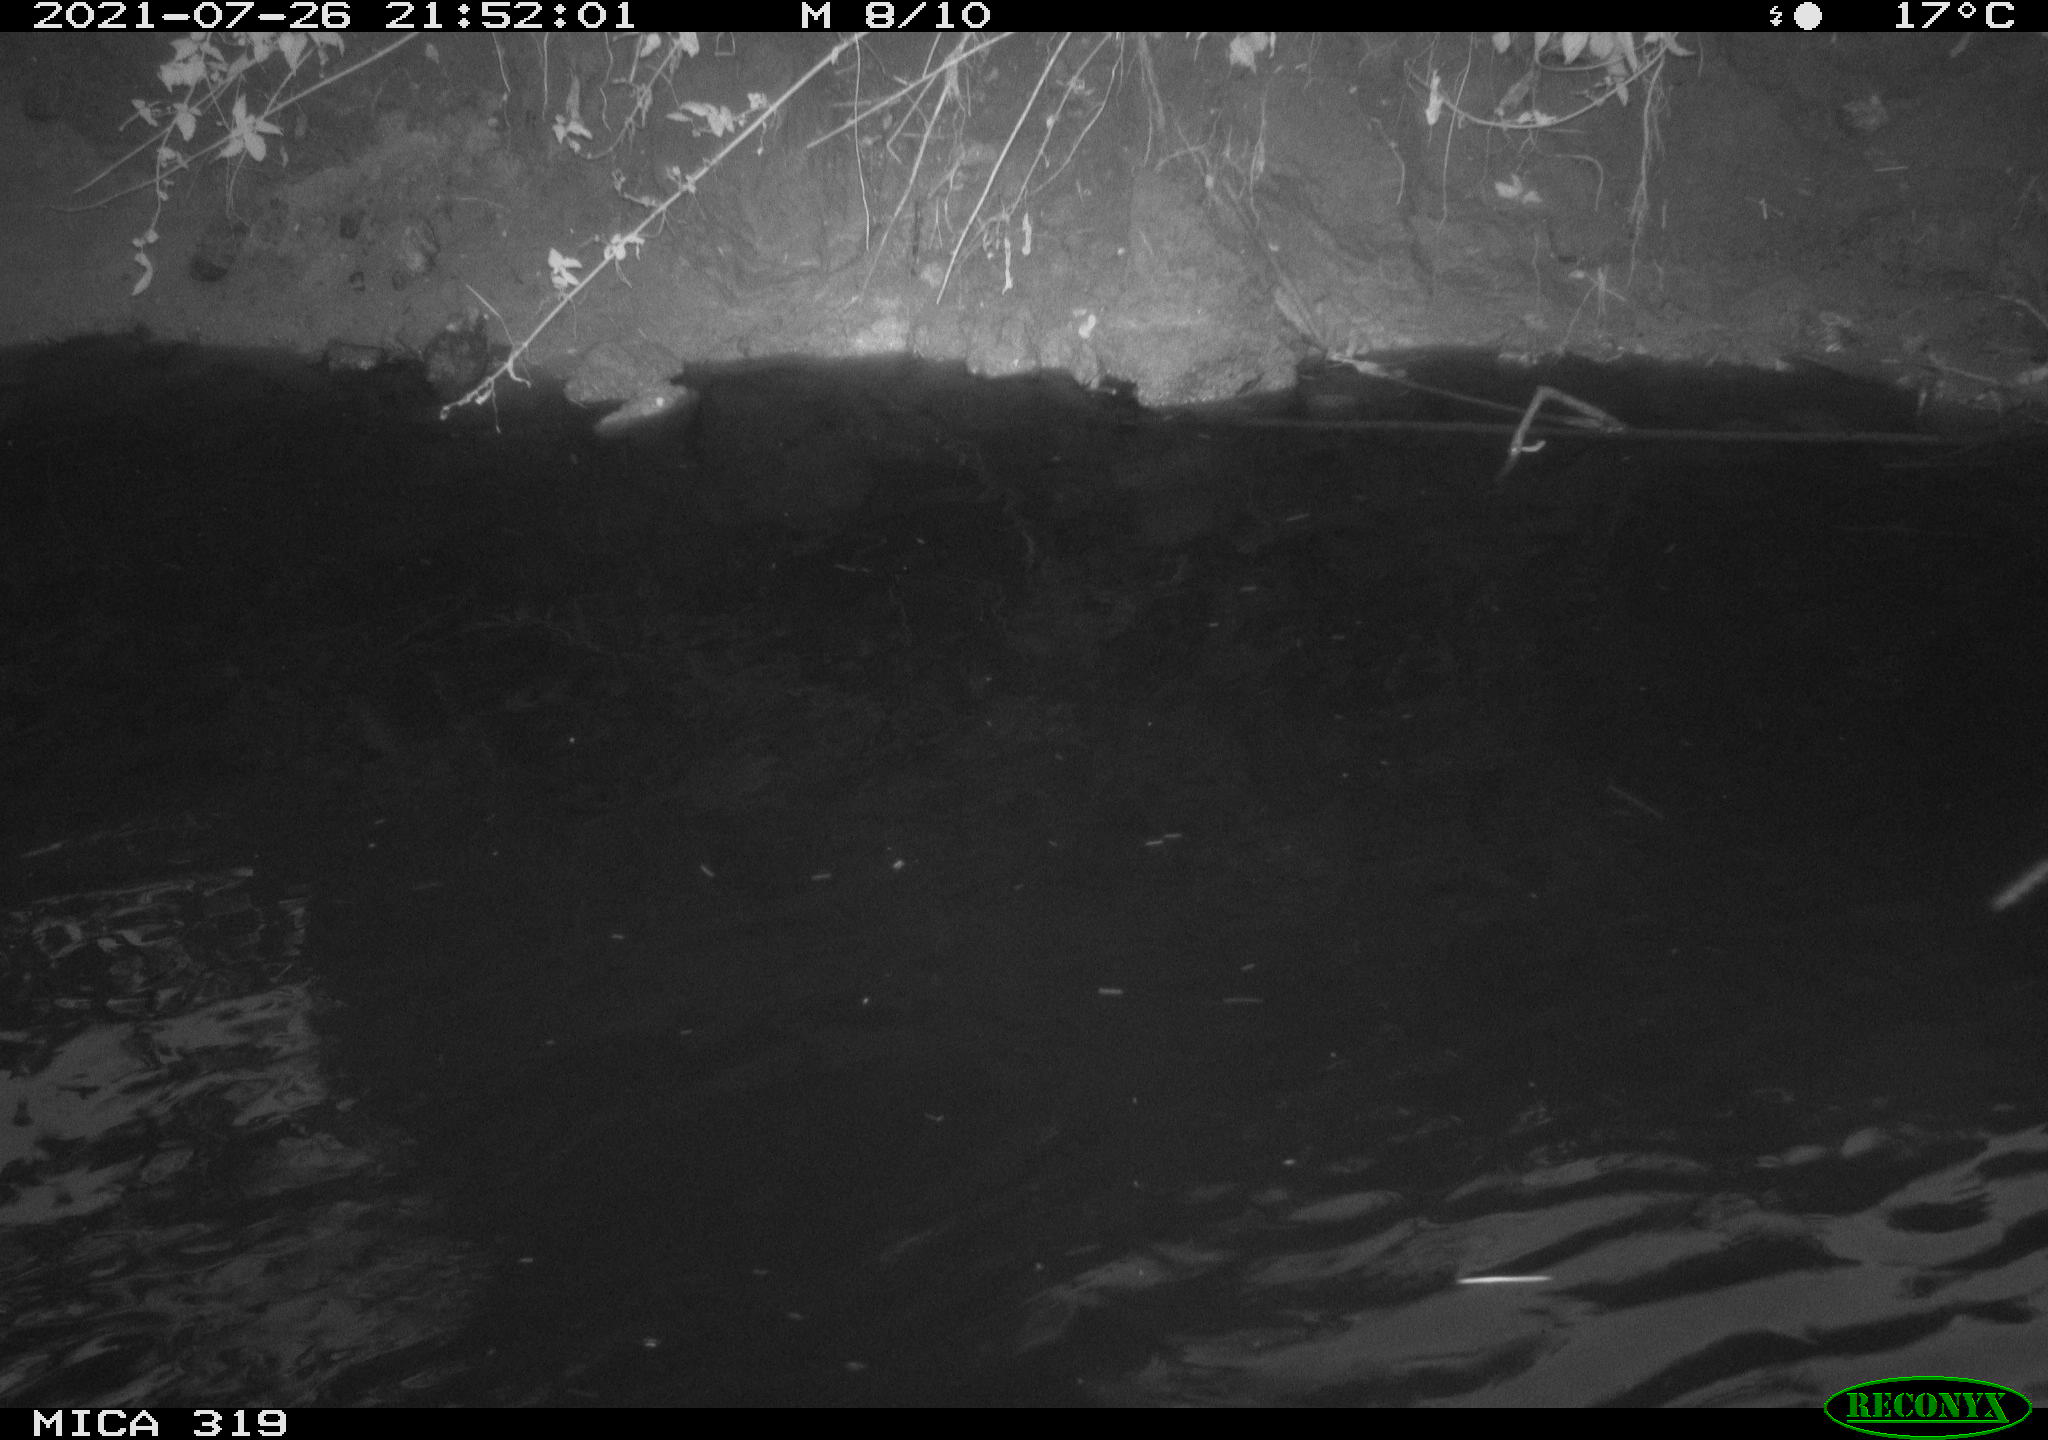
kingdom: Animalia
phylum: Chordata
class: Aves
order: Anseriformes
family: Anatidae
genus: Anas
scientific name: Anas platyrhynchos
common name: Mallard
